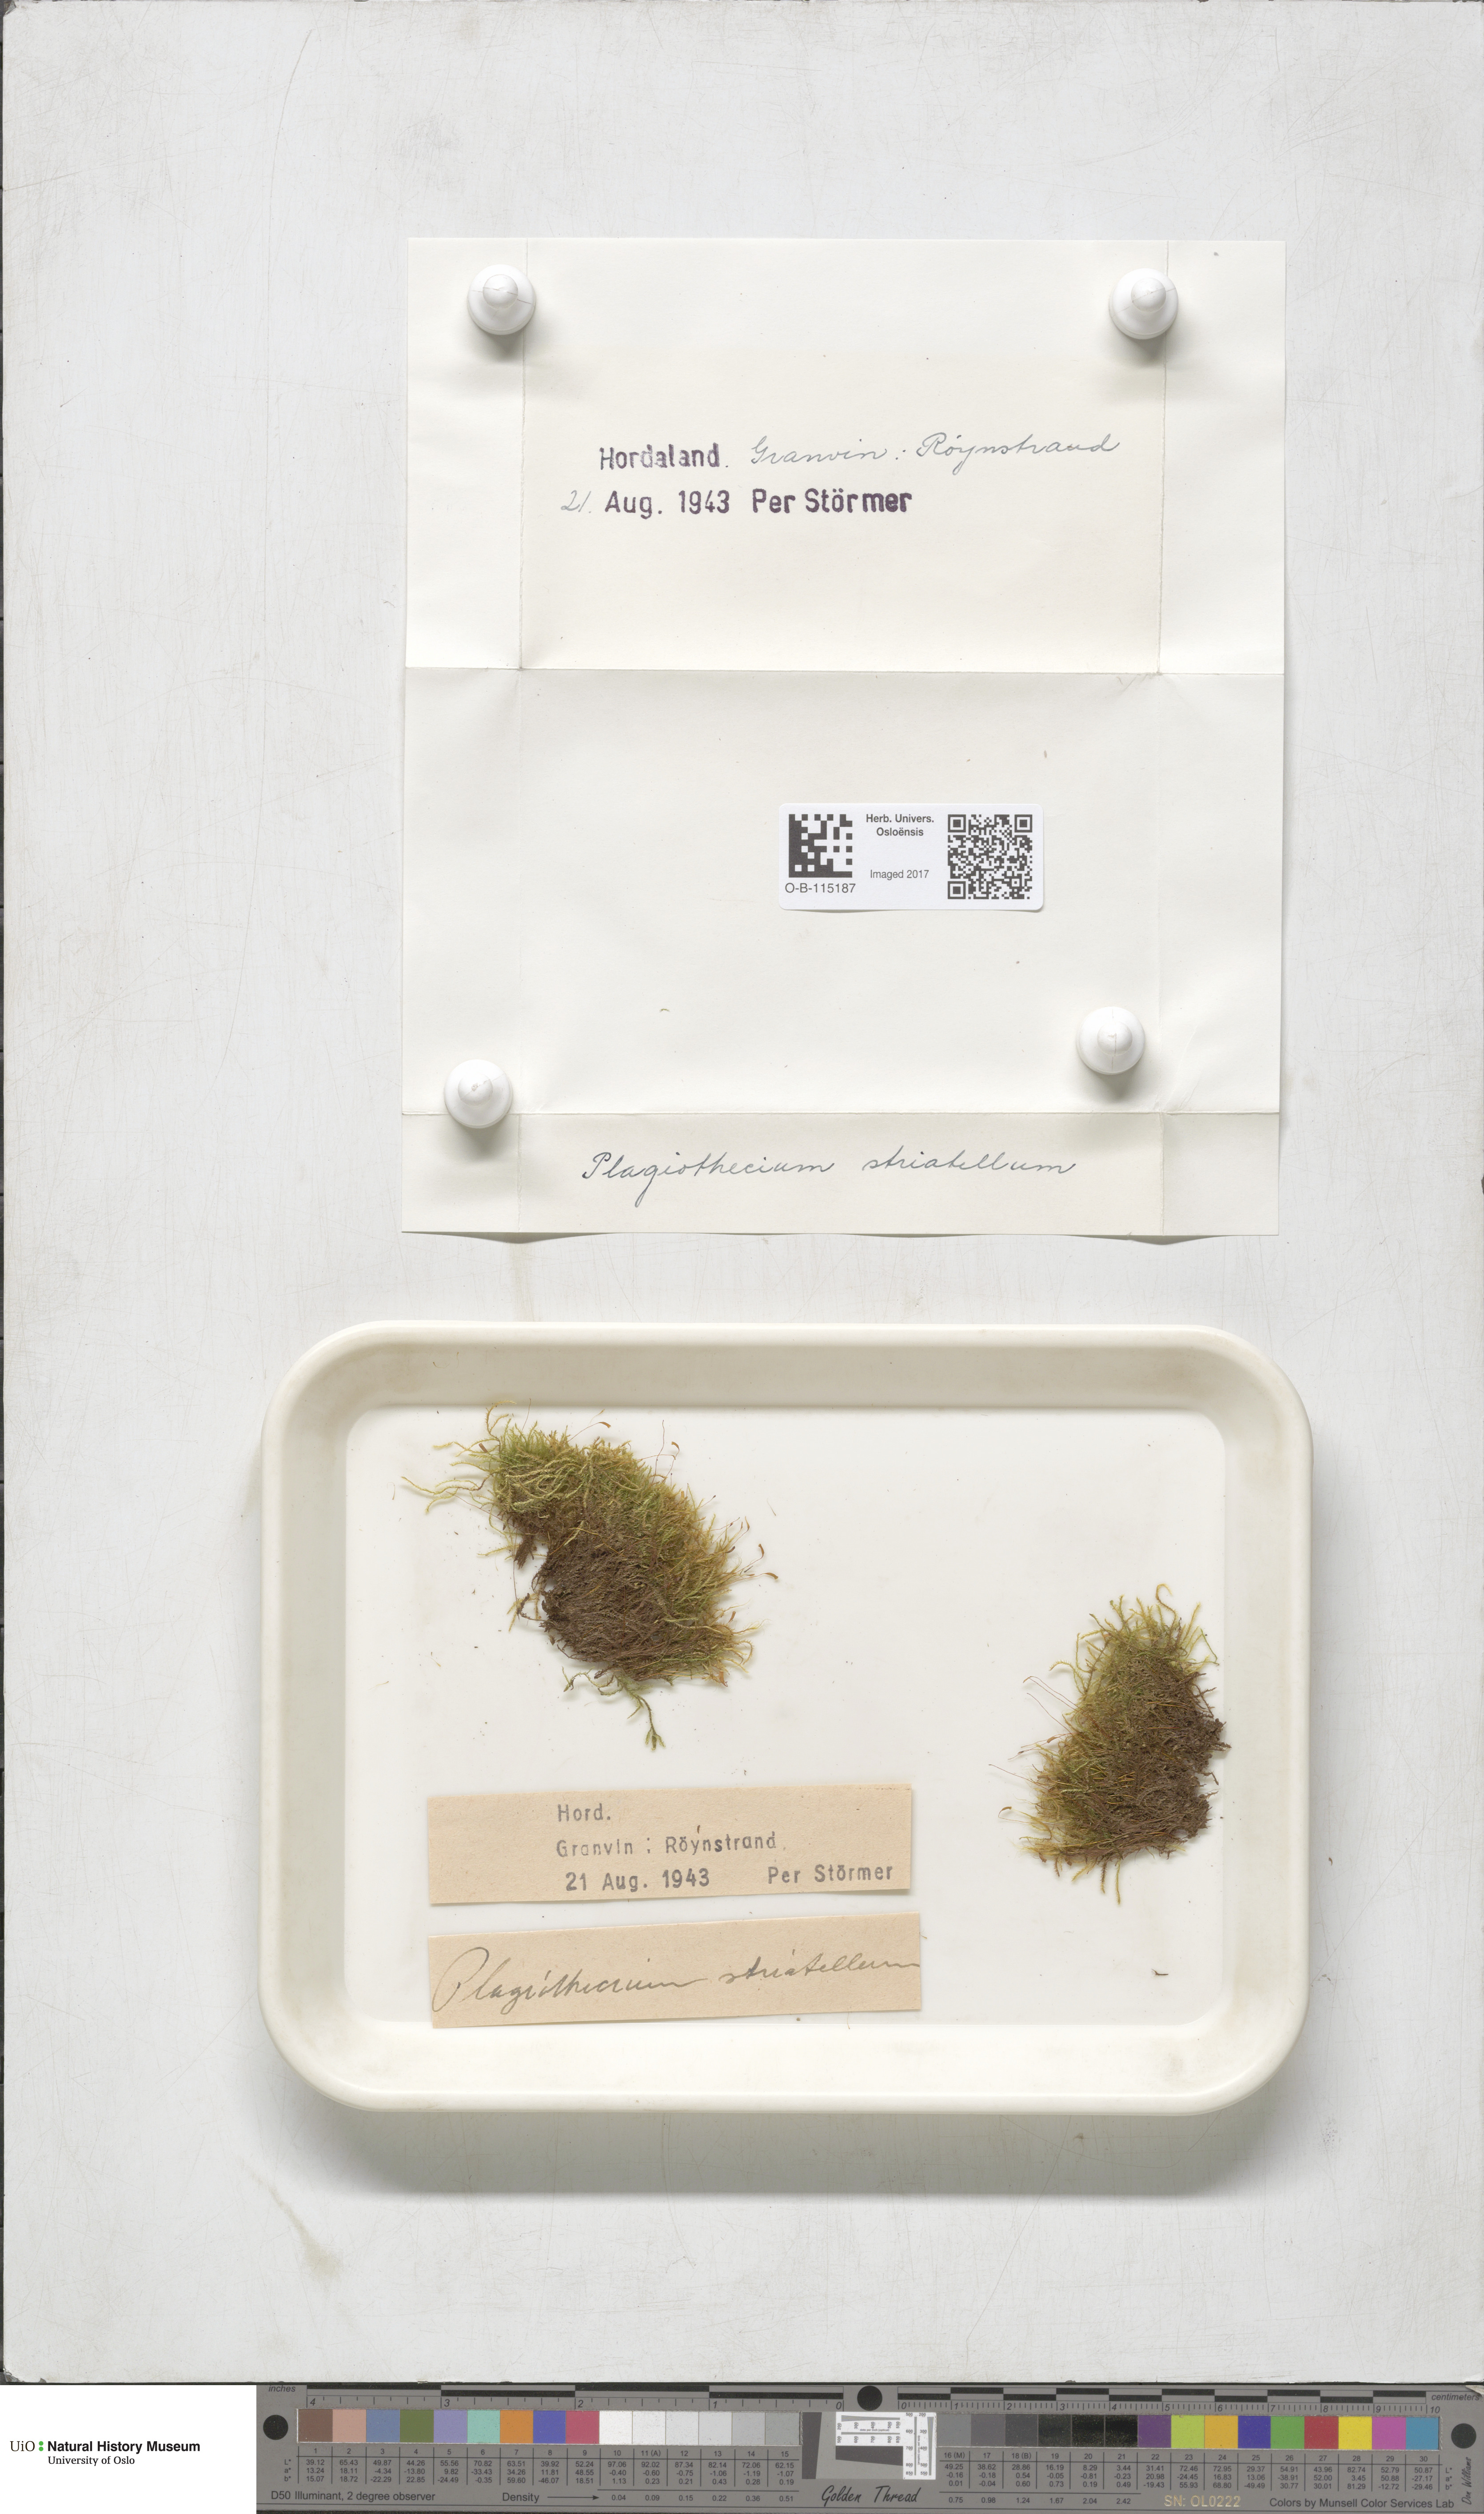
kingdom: Plantae
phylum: Bryophyta
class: Bryopsida
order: Hypnales
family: Plagiotheciaceae
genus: Herzogiella
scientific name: Herzogiella striatella
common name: Muhlenbeck's feather-moss
